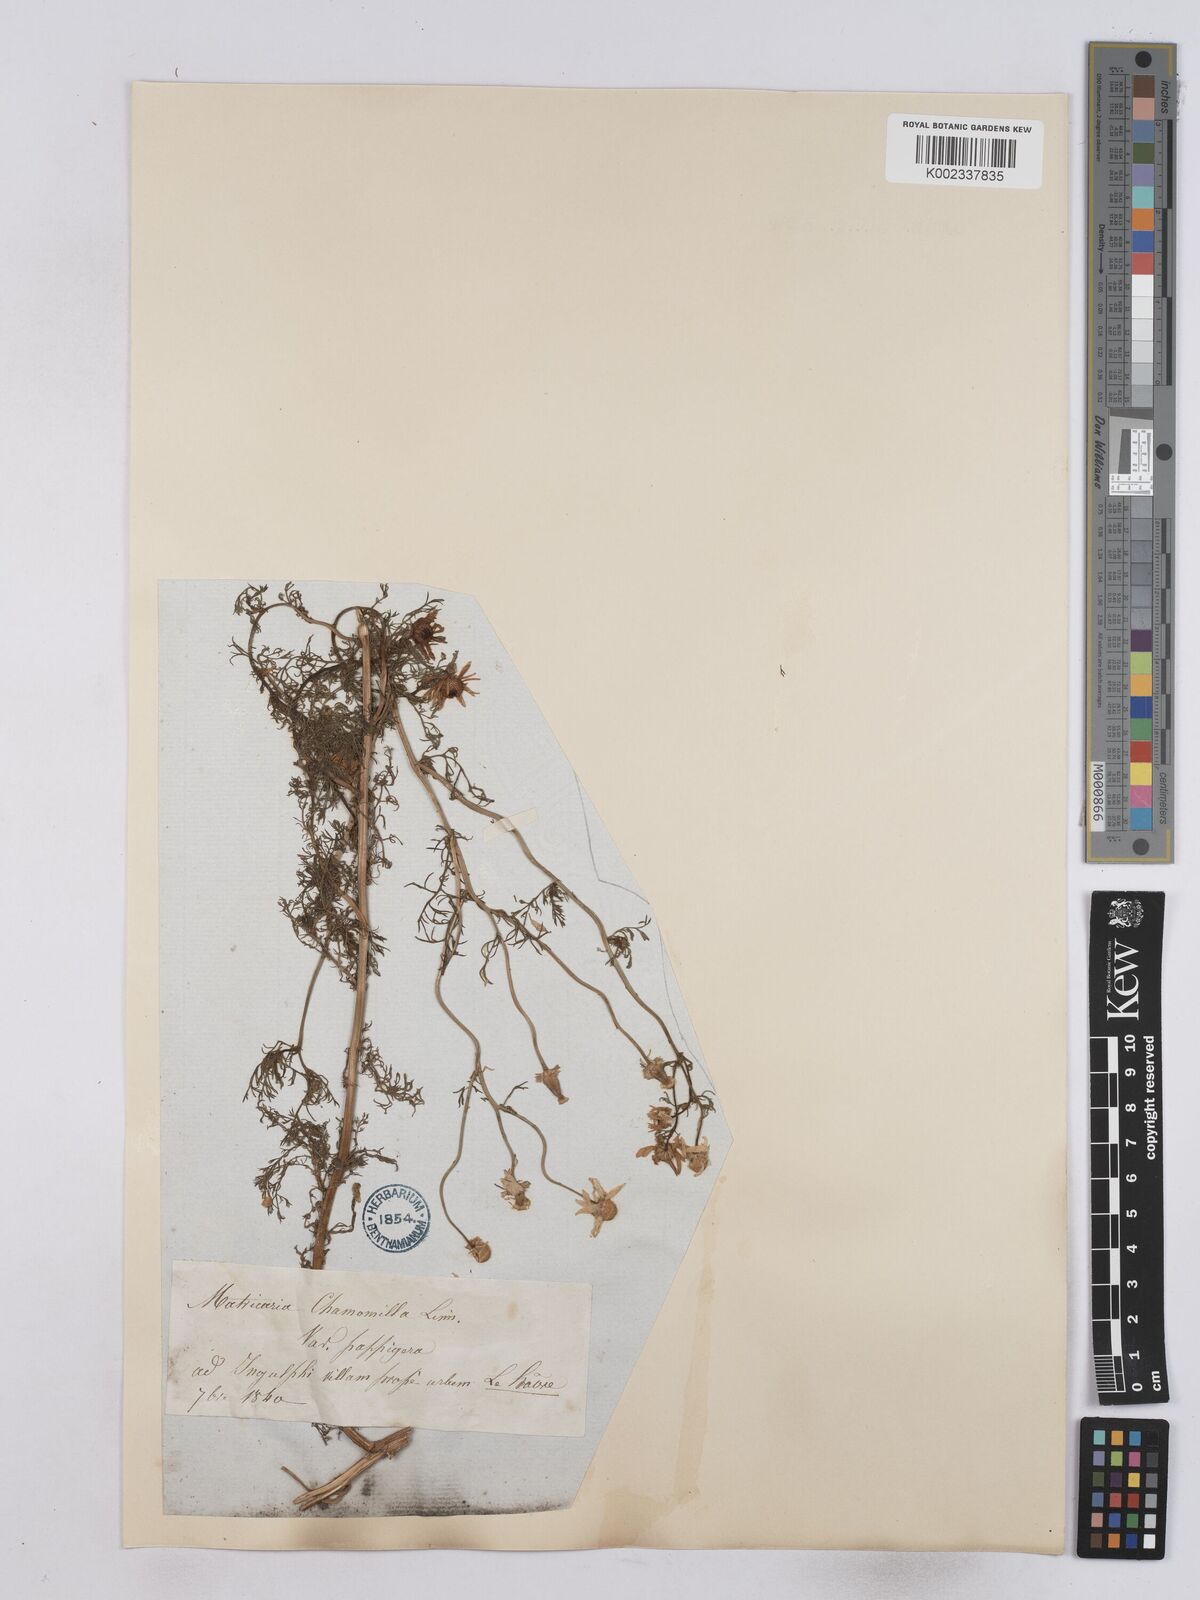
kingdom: Plantae
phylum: Tracheophyta
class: Magnoliopsida
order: Asterales
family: Asteraceae
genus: Matricaria
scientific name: Matricaria chamomilla
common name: Scented mayweed
